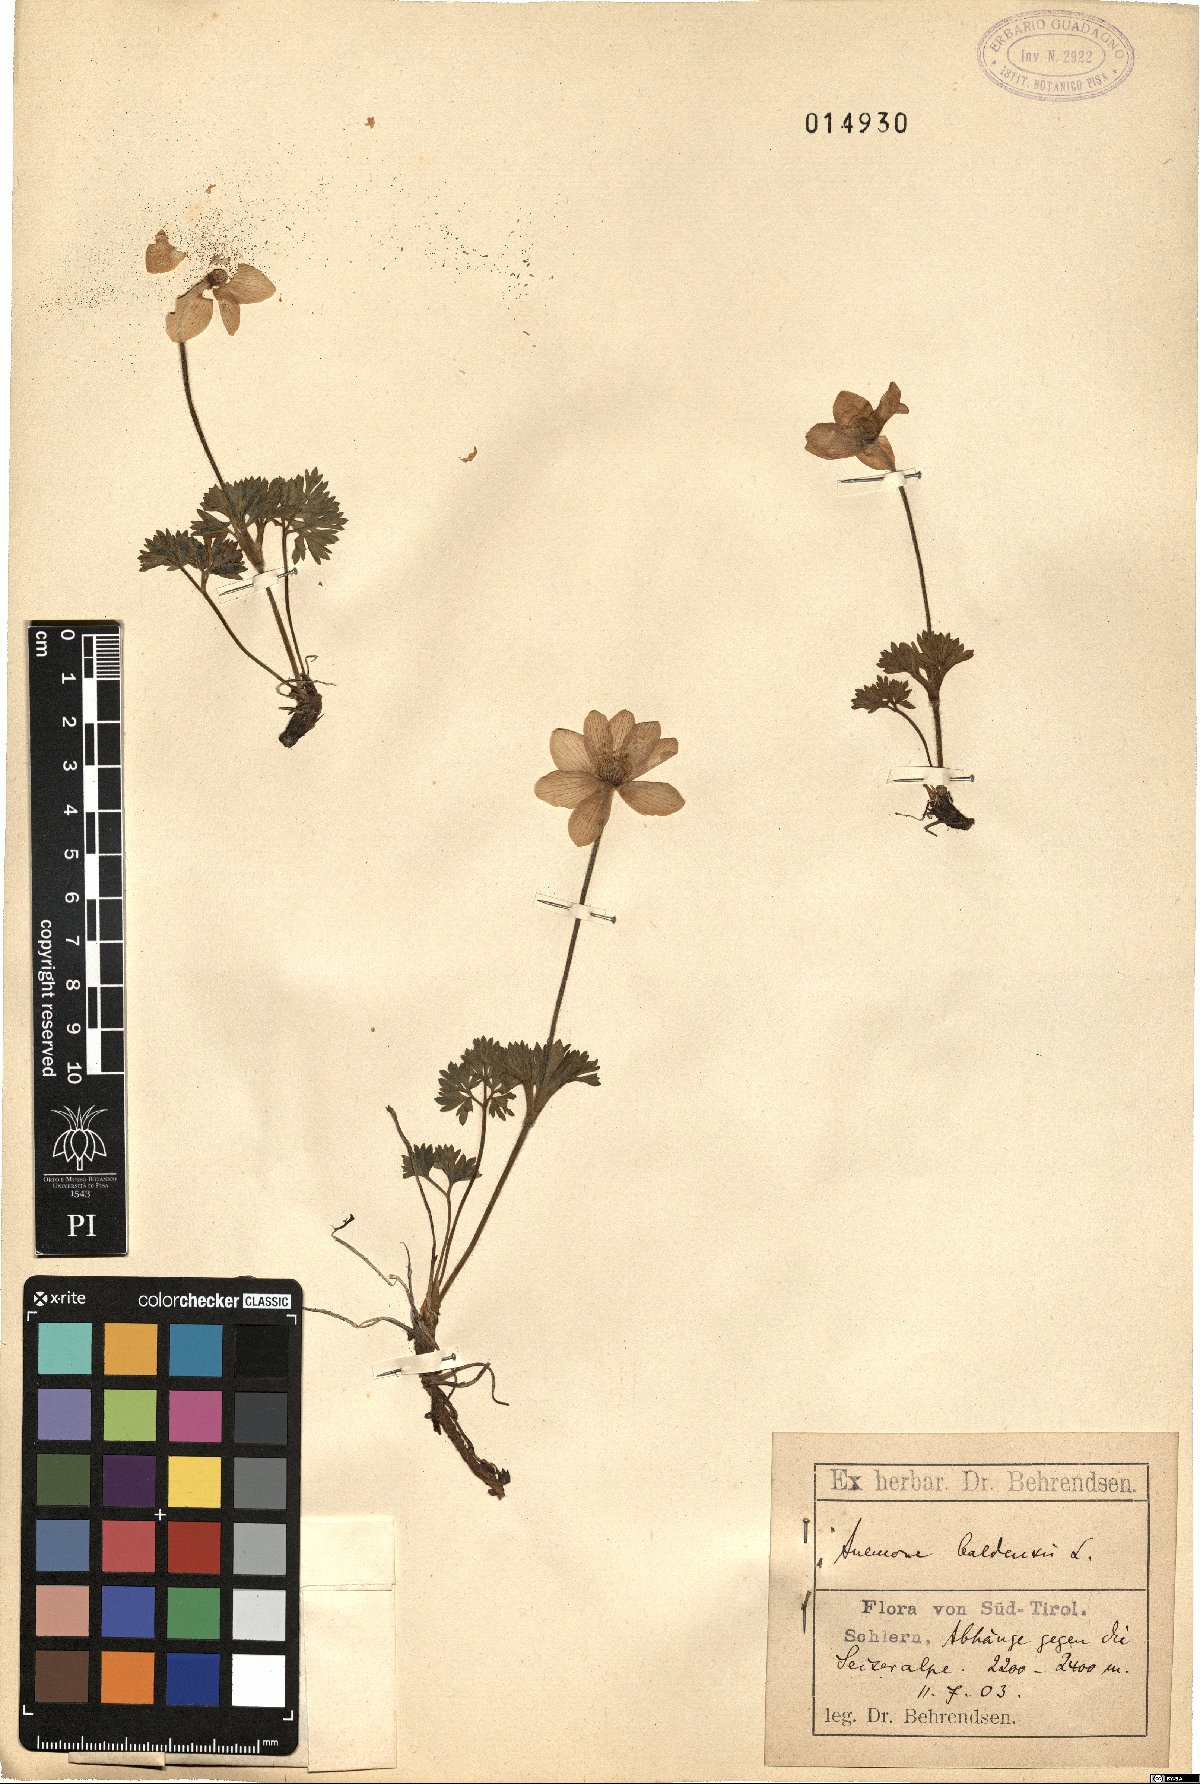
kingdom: Plantae
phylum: Tracheophyta
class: Magnoliopsida
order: Ranunculales
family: Ranunculaceae
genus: Anemone
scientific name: Anemone baldensis
